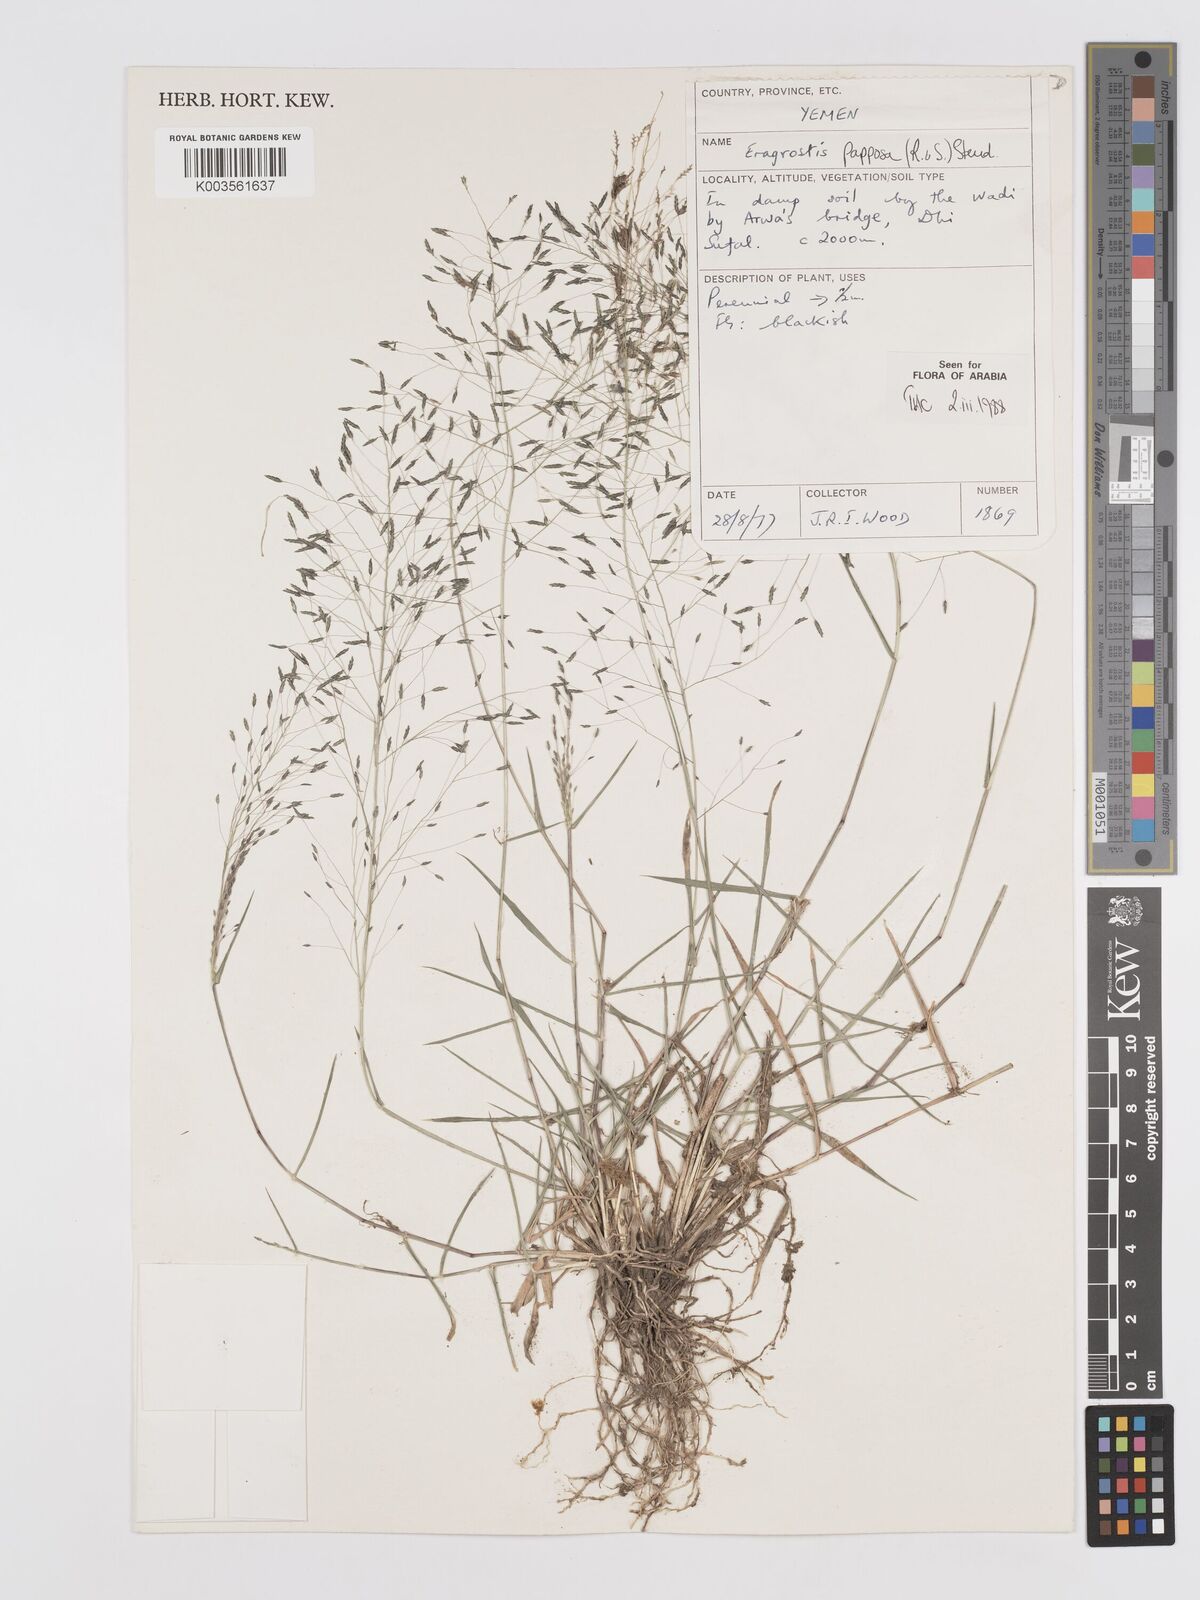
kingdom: Plantae
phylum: Tracheophyta
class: Liliopsida
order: Poales
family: Poaceae
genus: Eragrostis
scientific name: Eragrostis papposa
